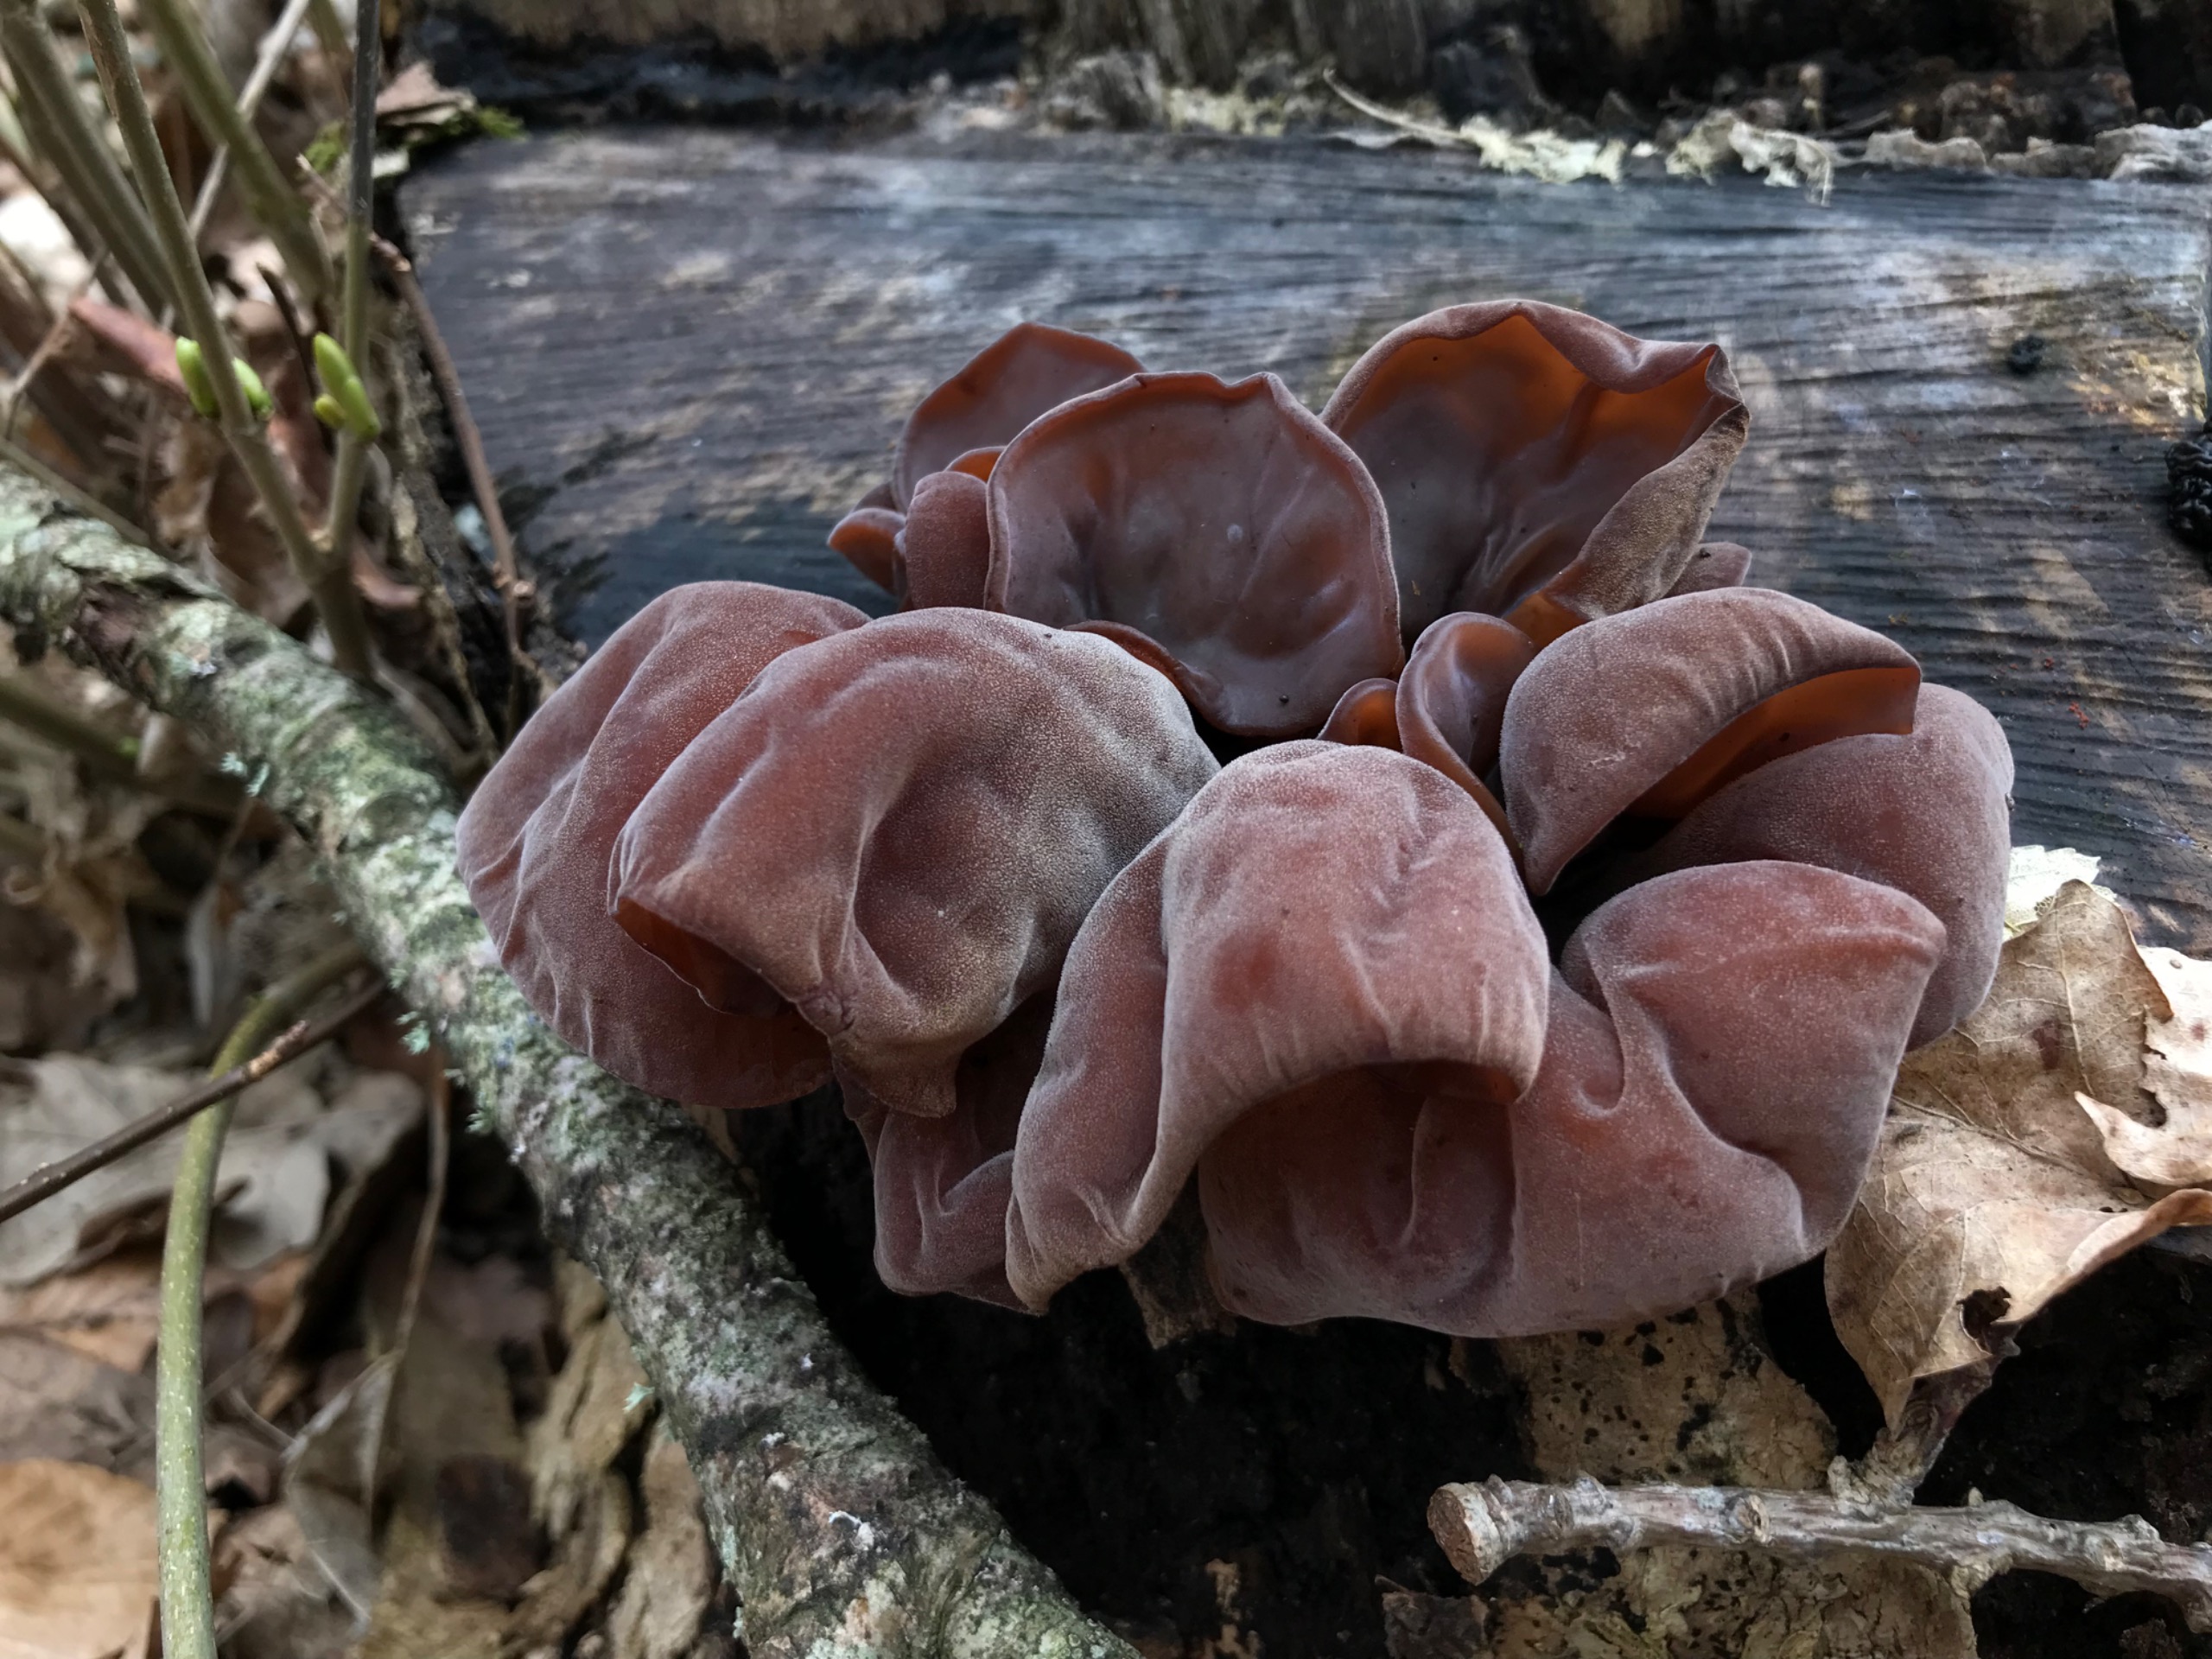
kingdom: Fungi
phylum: Basidiomycota
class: Agaricomycetes
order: Auriculariales
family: Auriculariaceae
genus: Auricularia
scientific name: Auricularia auricula-judae
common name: Almindelig judasøre
